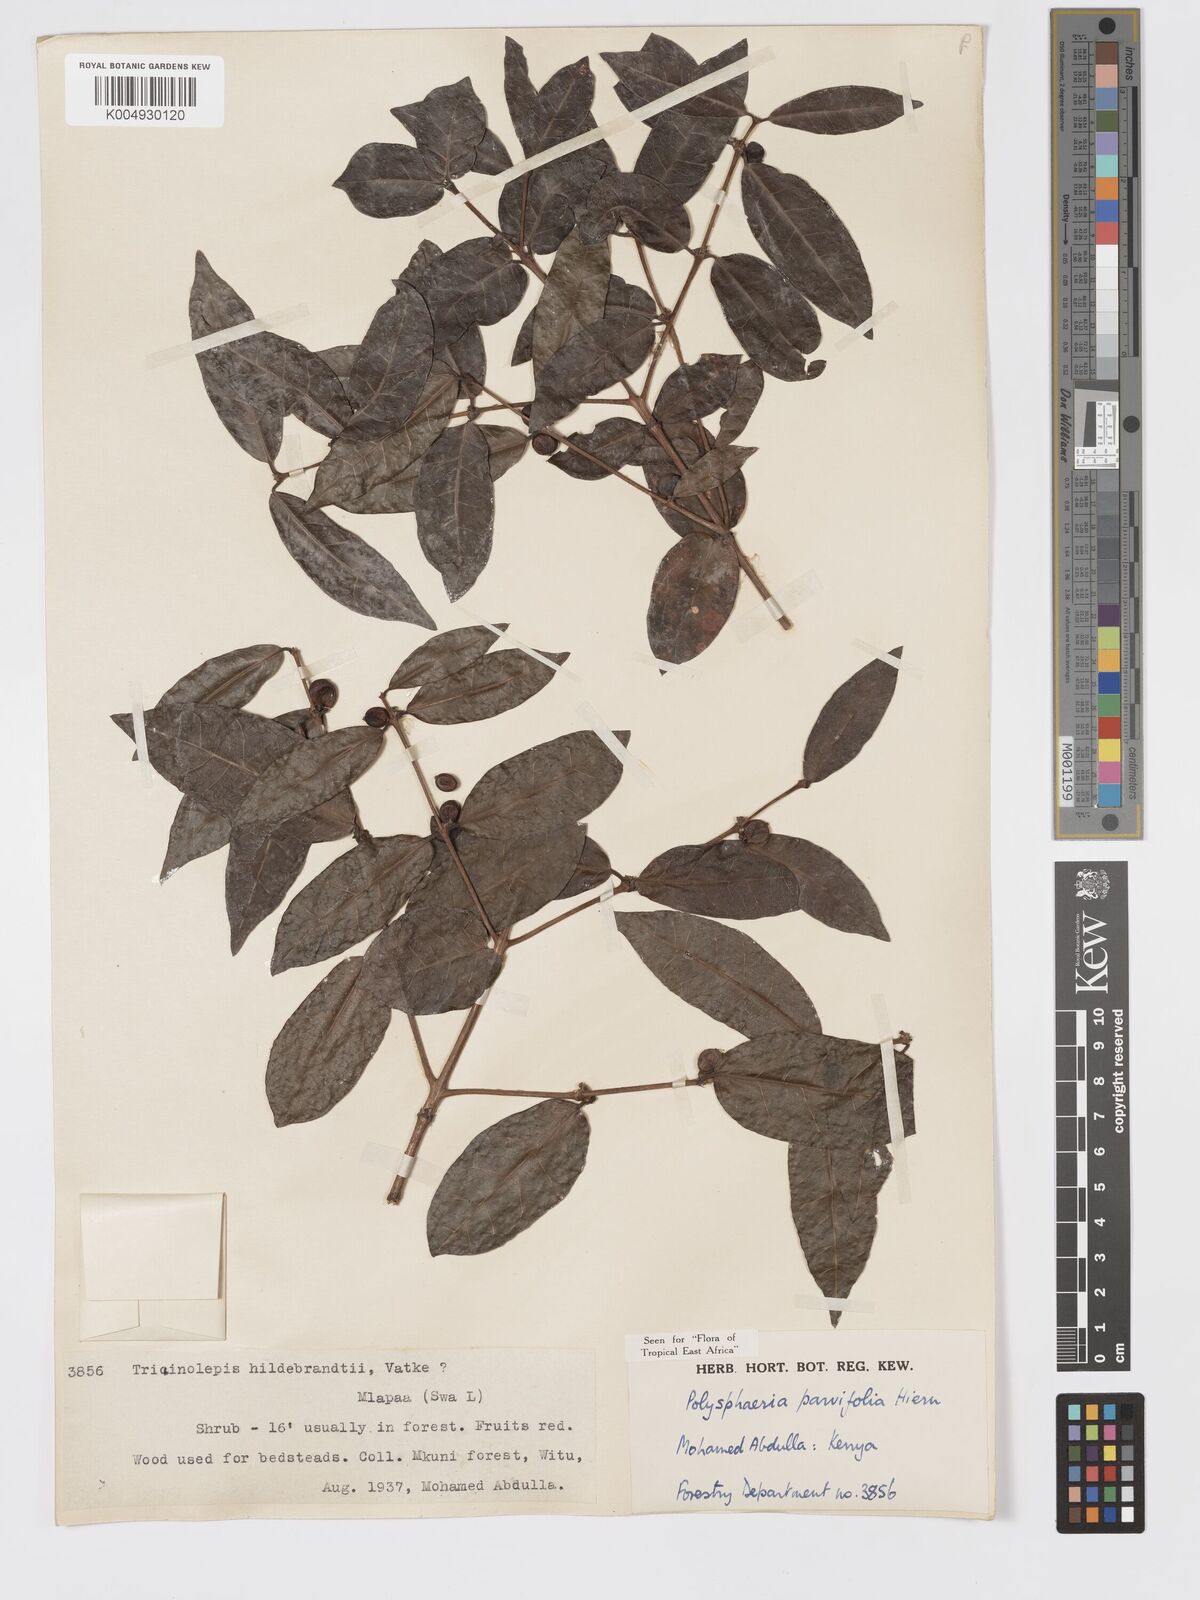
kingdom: Plantae
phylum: Tracheophyta
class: Magnoliopsida
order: Gentianales
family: Rubiaceae
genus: Polysphaeria
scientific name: Polysphaeria parvifolia
